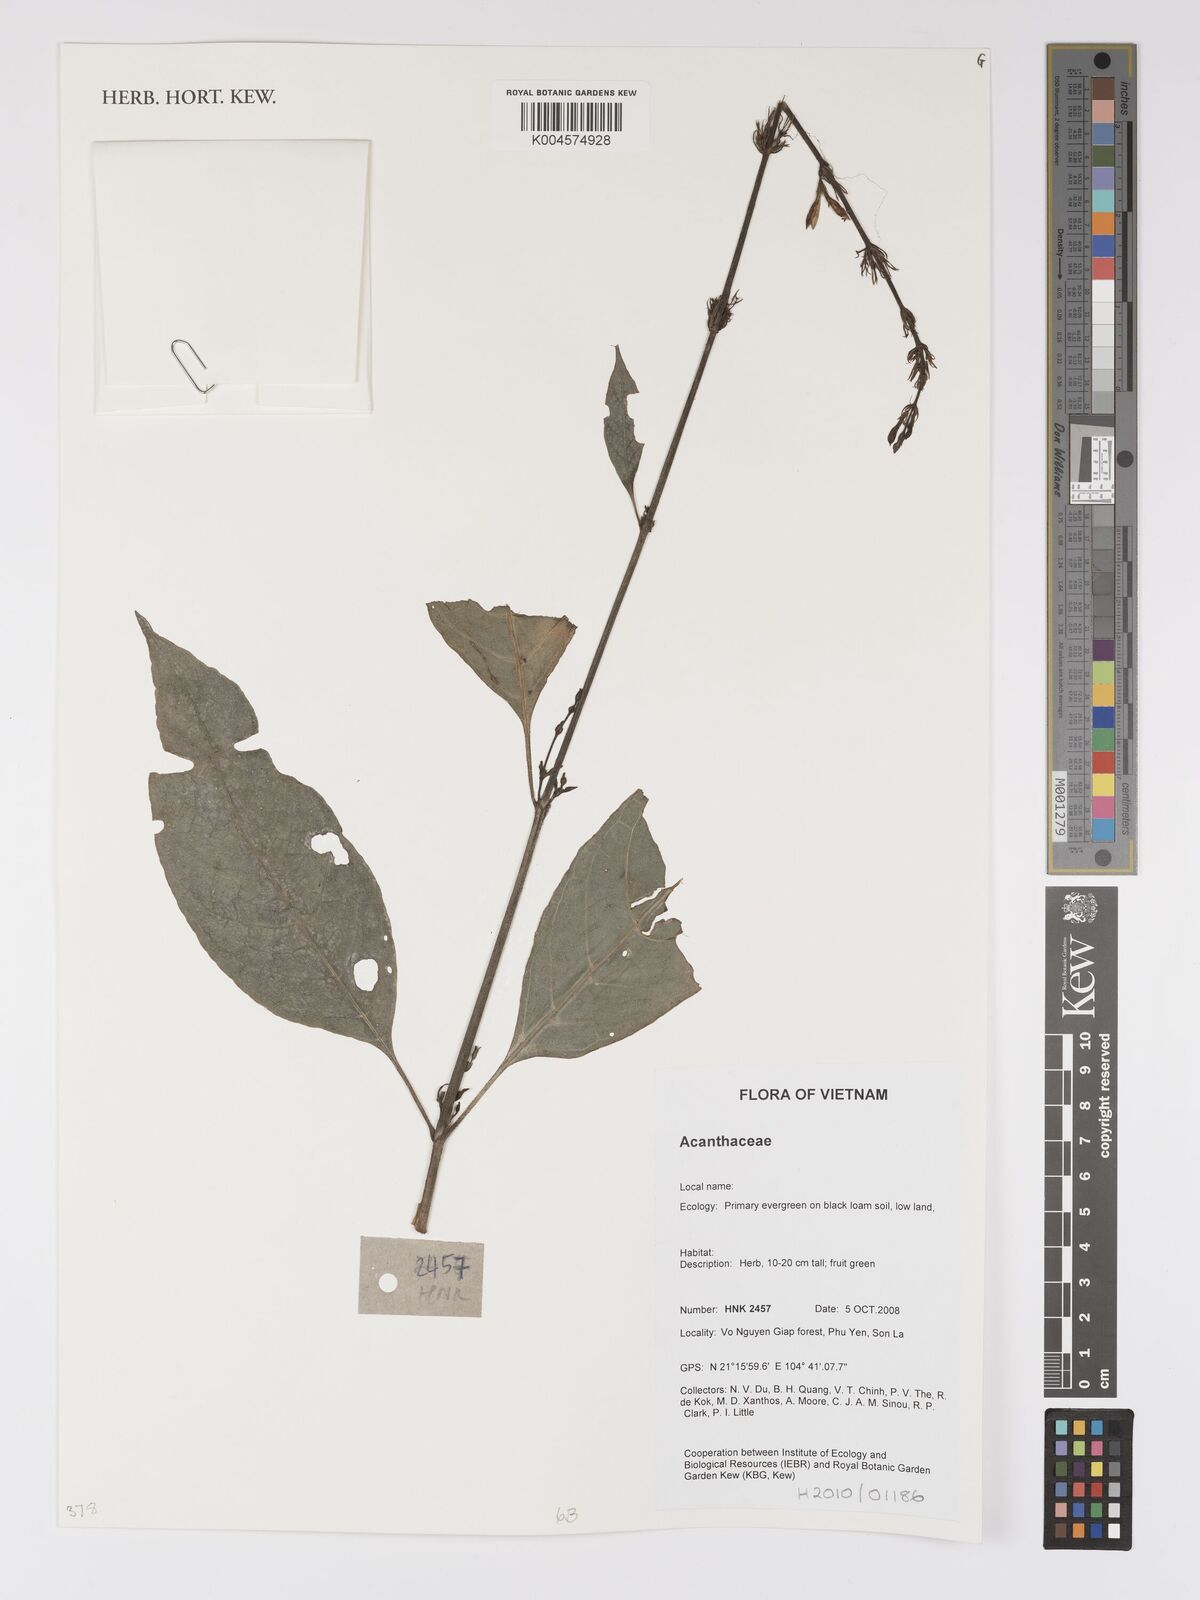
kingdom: Plantae
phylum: Tracheophyta
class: Magnoliopsida
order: Lamiales
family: Acanthaceae
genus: Pseuderanthemum
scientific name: Pseuderanthemum
